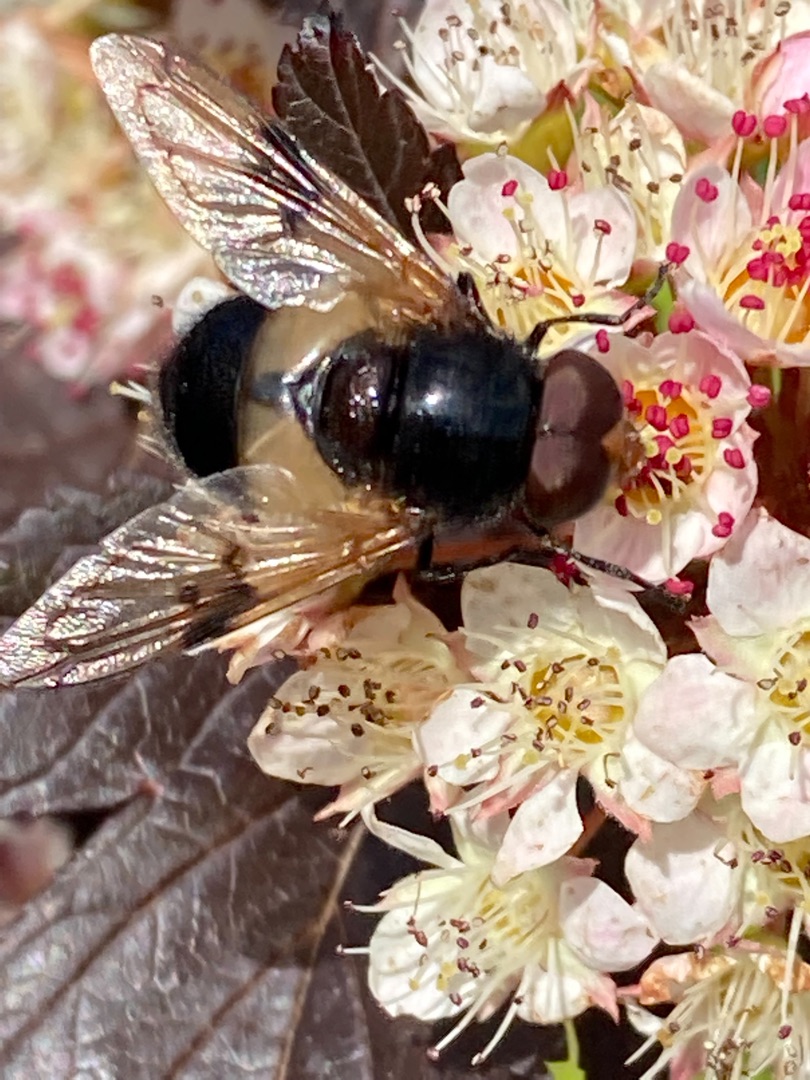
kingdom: Animalia
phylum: Arthropoda
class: Insecta
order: Diptera
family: Syrphidae
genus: Volucella
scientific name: Volucella pellucens
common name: Hvidbåndet humlesvirreflue
